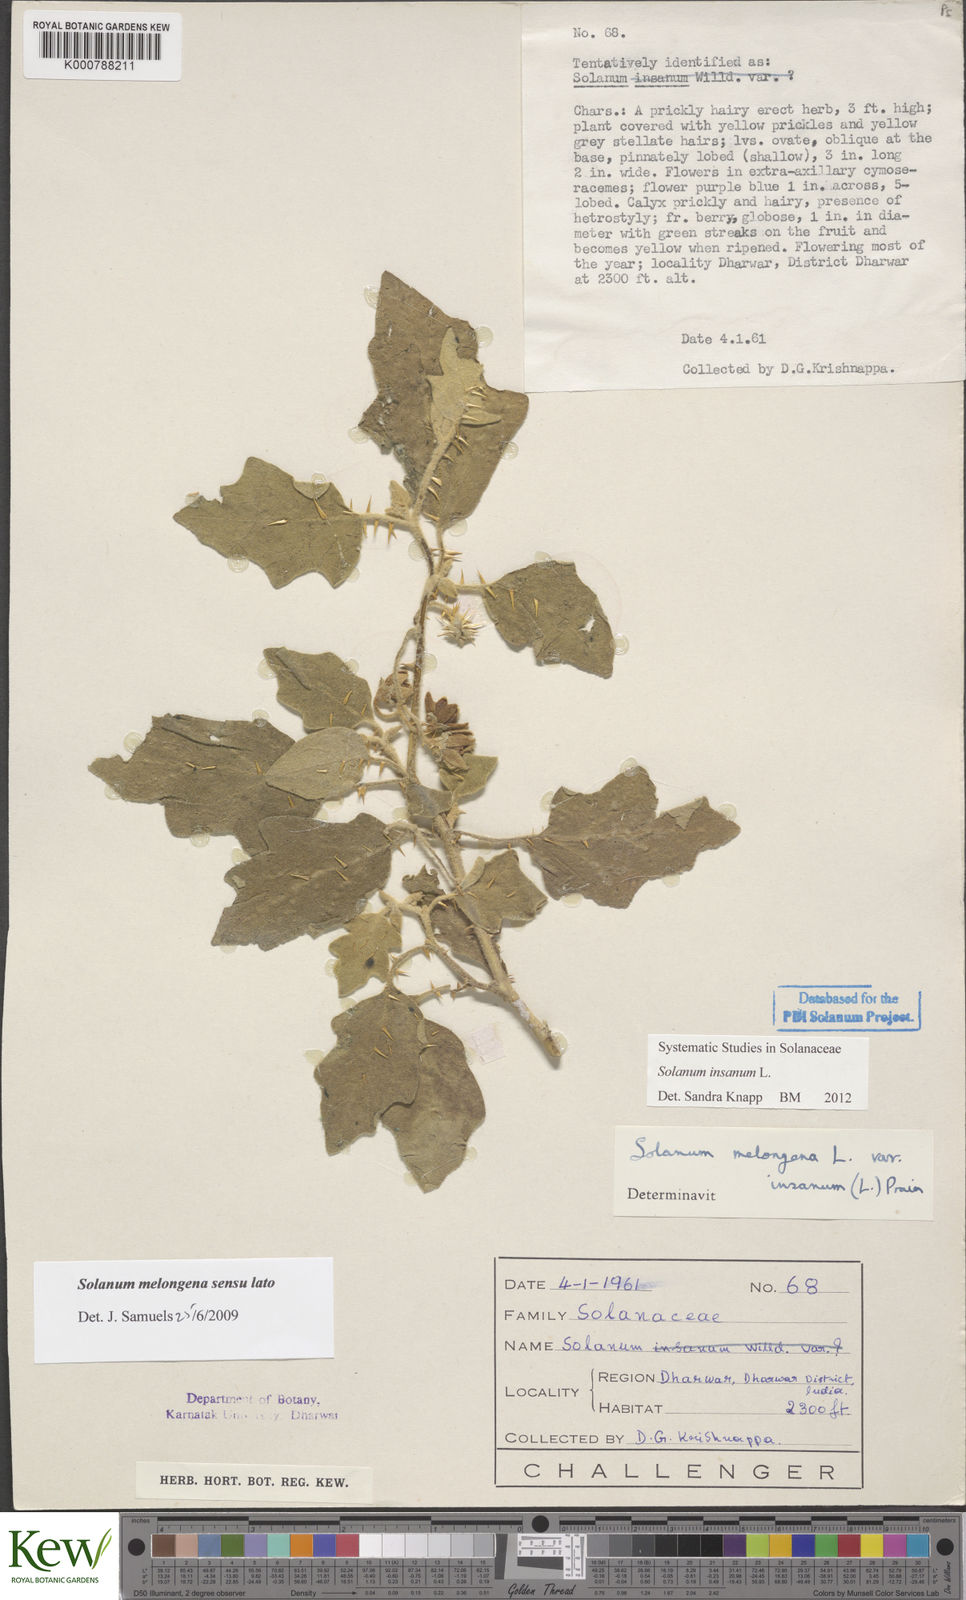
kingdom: Plantae
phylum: Tracheophyta
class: Magnoliopsida
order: Solanales
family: Solanaceae
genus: Solanum
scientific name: Solanum insanum
